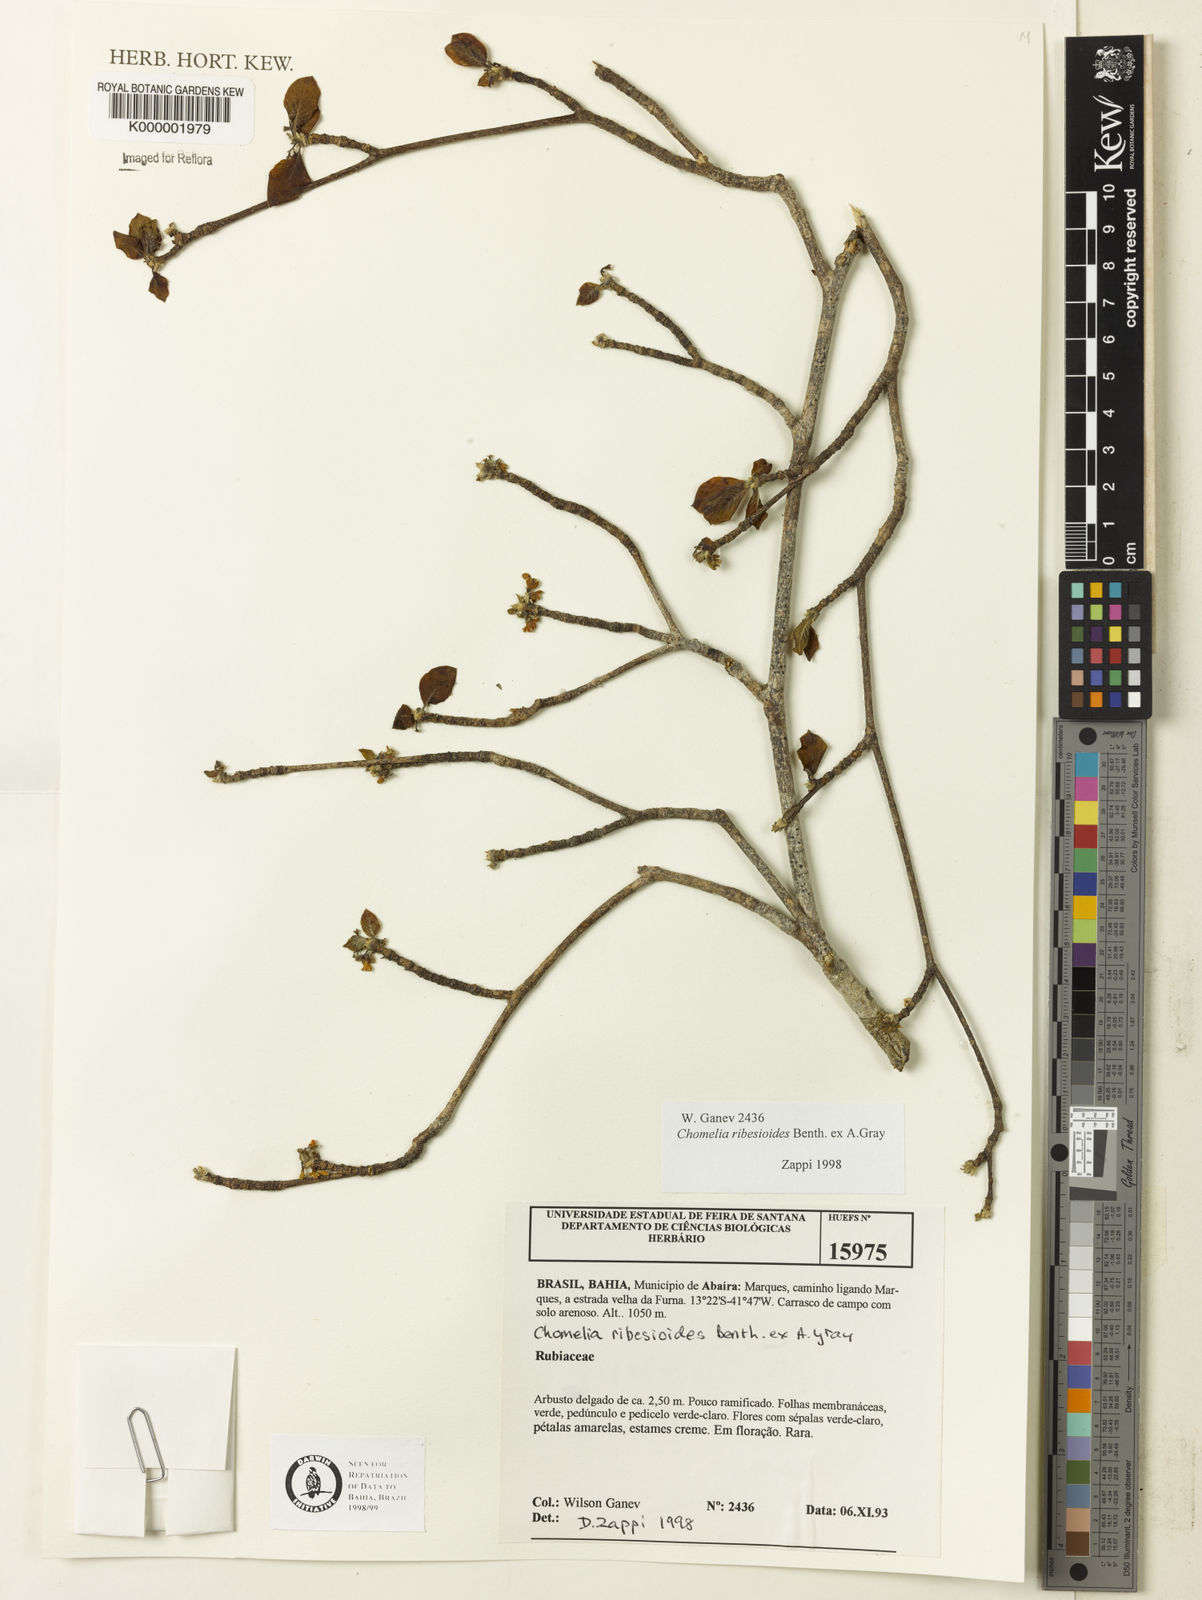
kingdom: Plantae
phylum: Tracheophyta
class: Magnoliopsida
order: Gentianales
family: Rubiaceae
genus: Chomelia
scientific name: Chomelia ribesioides
